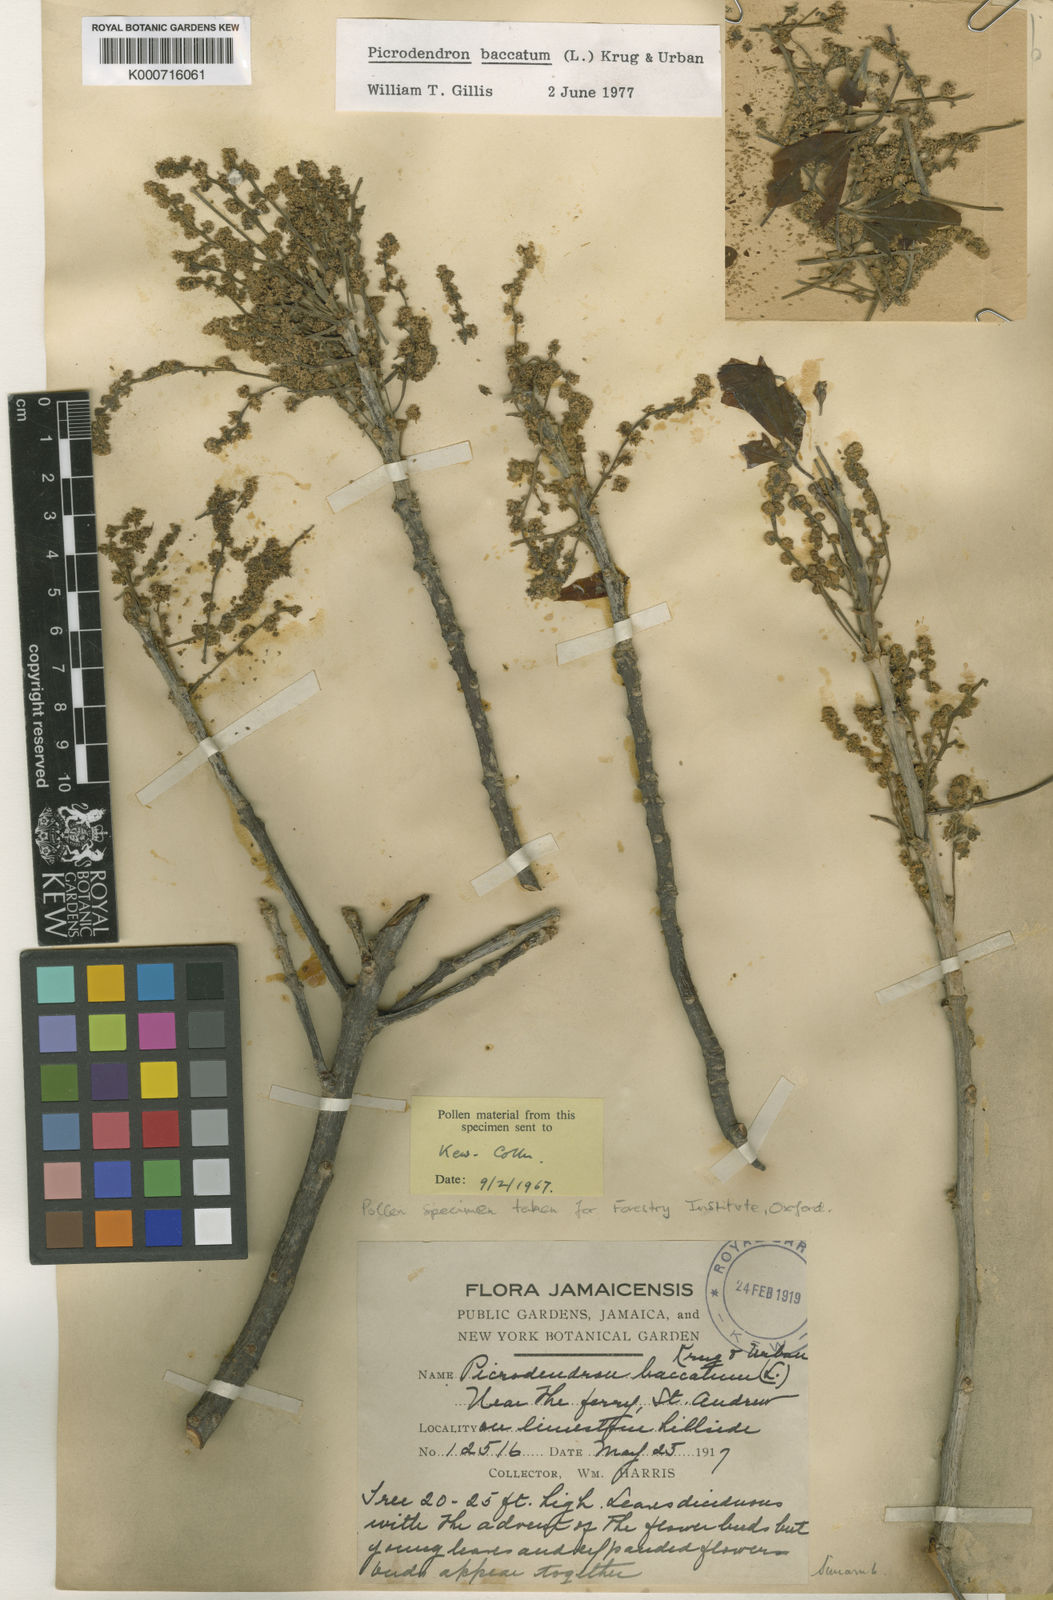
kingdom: Plantae
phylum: Tracheophyta
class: Magnoliopsida
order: Malpighiales
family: Picrodendraceae
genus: Picrodendron
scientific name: Picrodendron baccatum
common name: Jamaica-walnut
